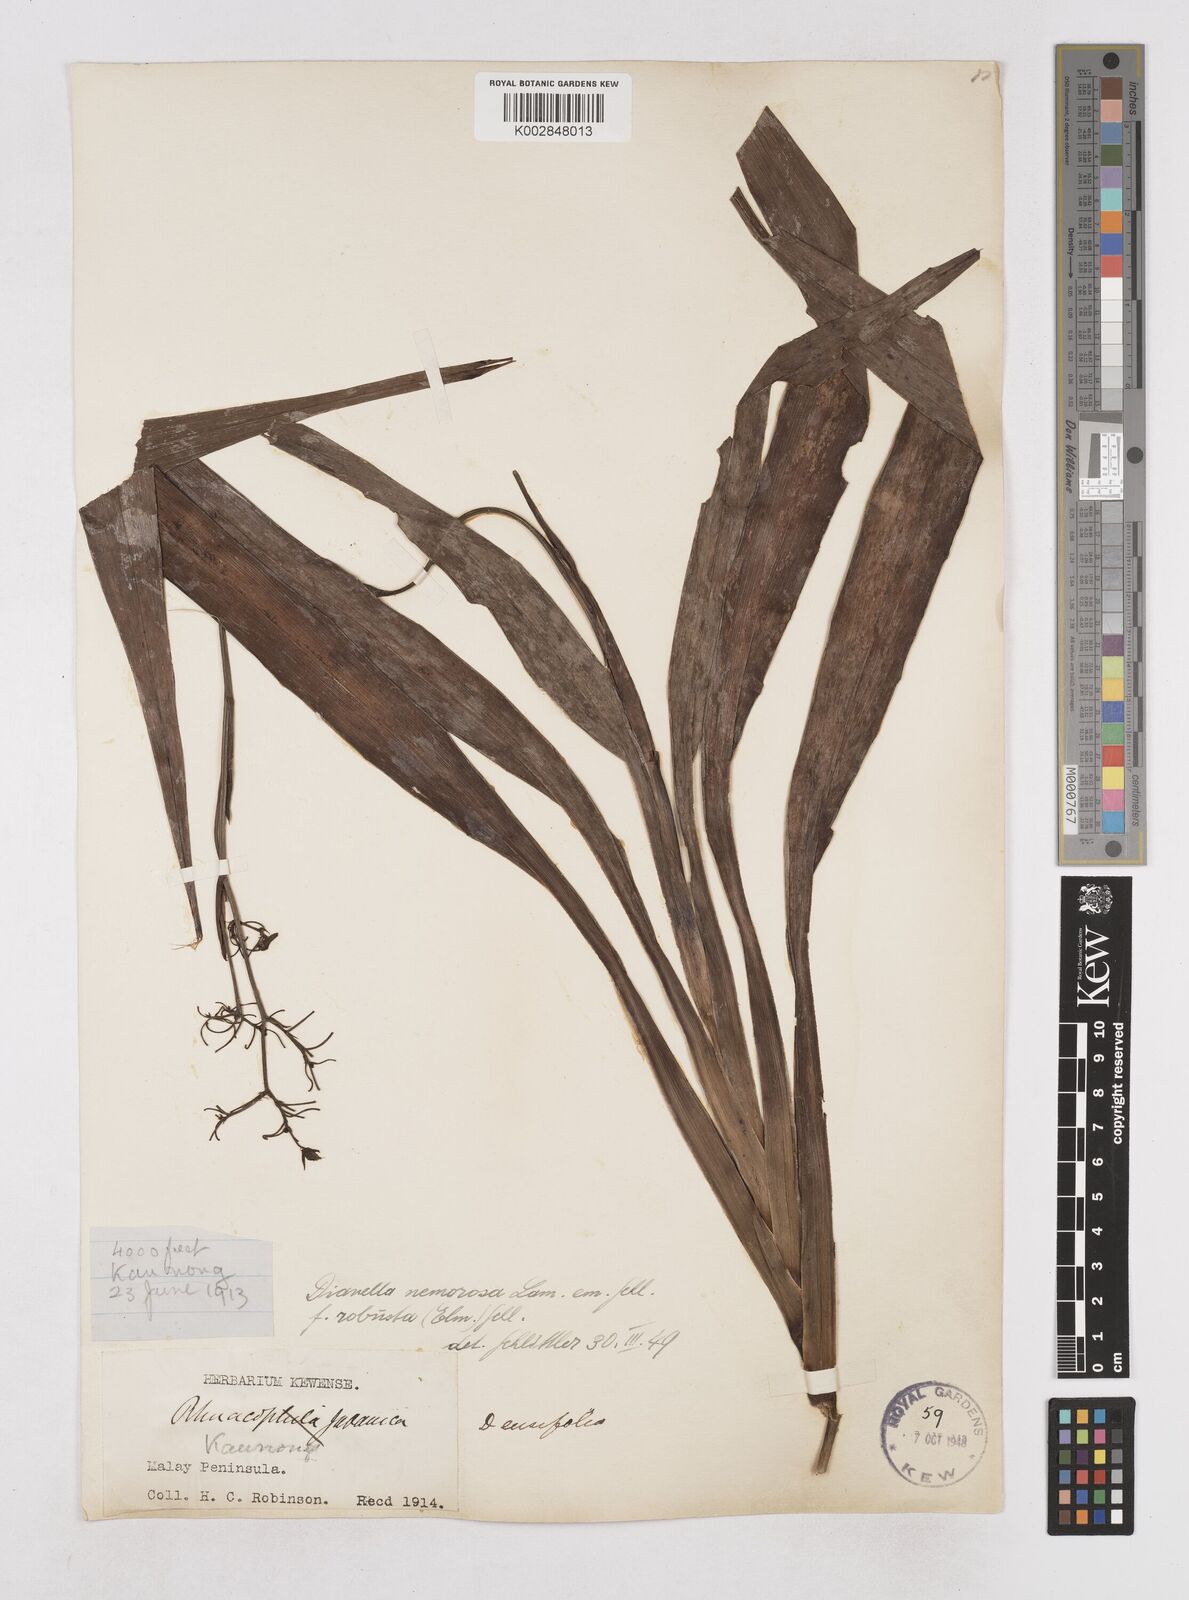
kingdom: Plantae
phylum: Tracheophyta
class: Liliopsida
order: Asparagales
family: Asphodelaceae
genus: Dianella
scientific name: Dianella ensifolia
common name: New zealand lilyplant
